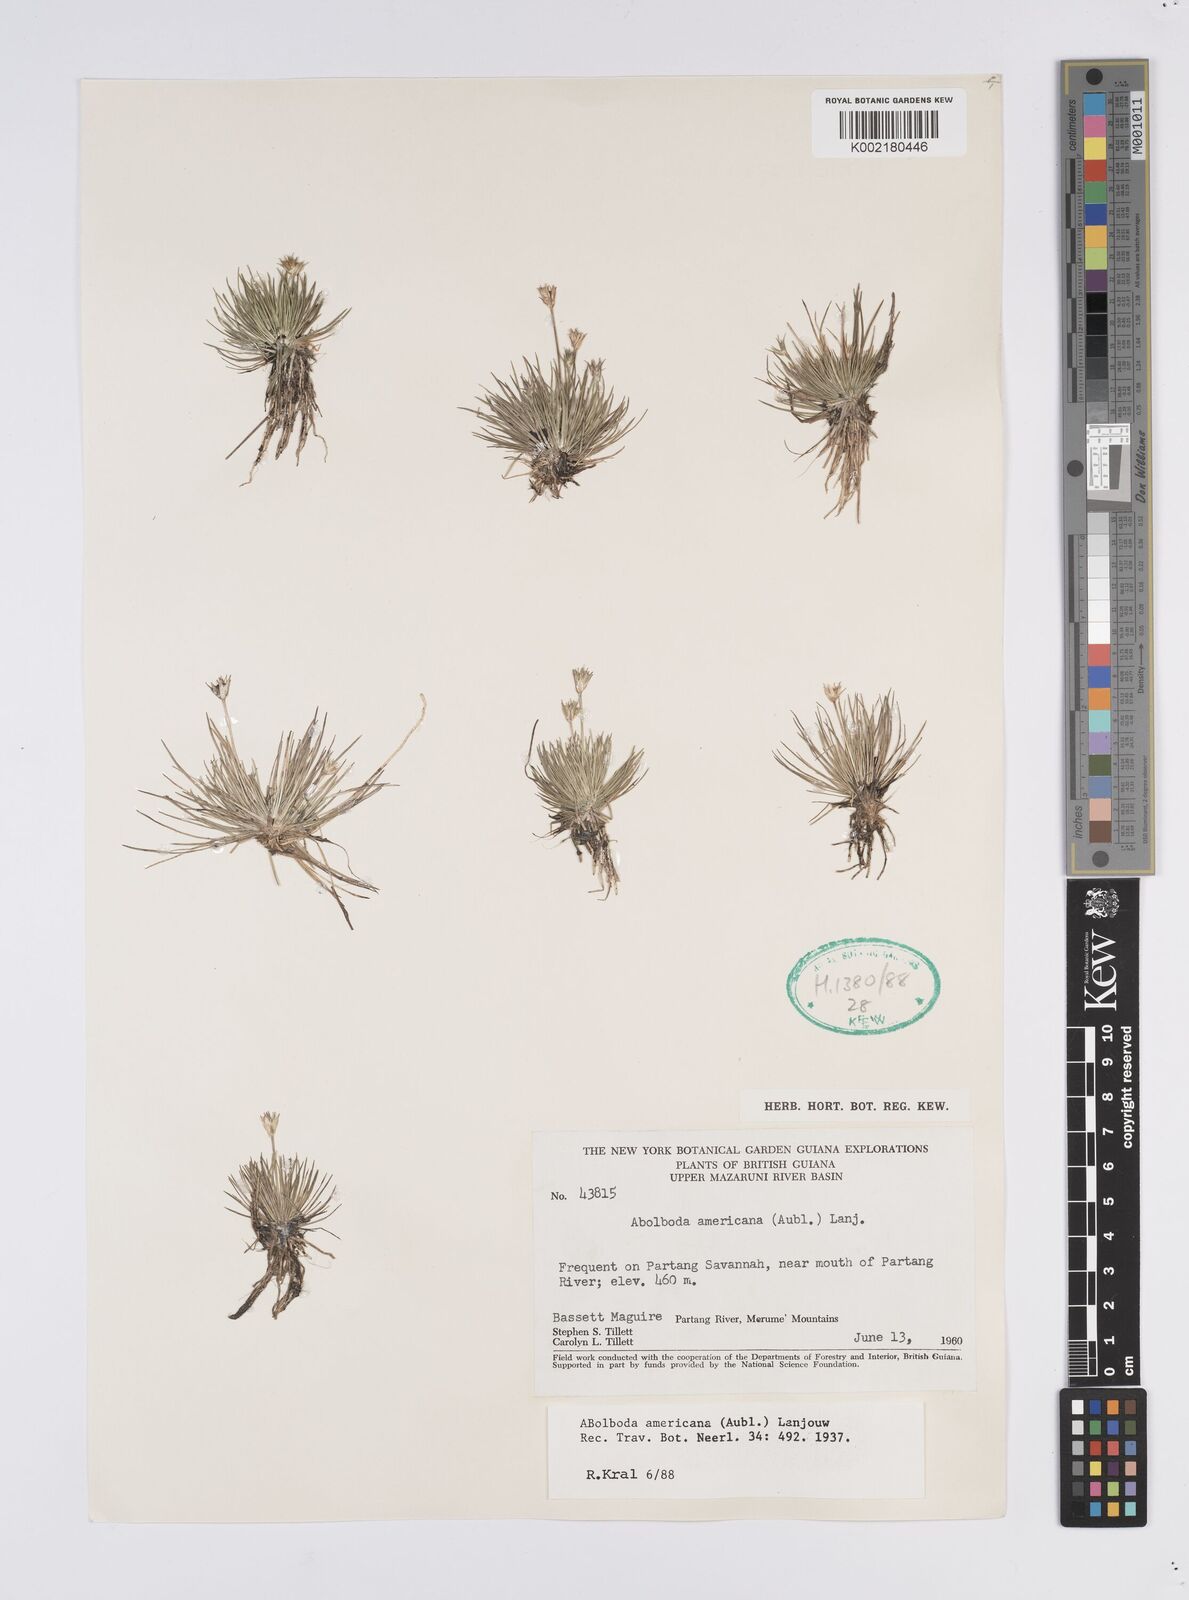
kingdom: Plantae
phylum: Tracheophyta
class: Liliopsida
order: Poales
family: Xyridaceae
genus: Abolboda
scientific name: Abolboda americana
